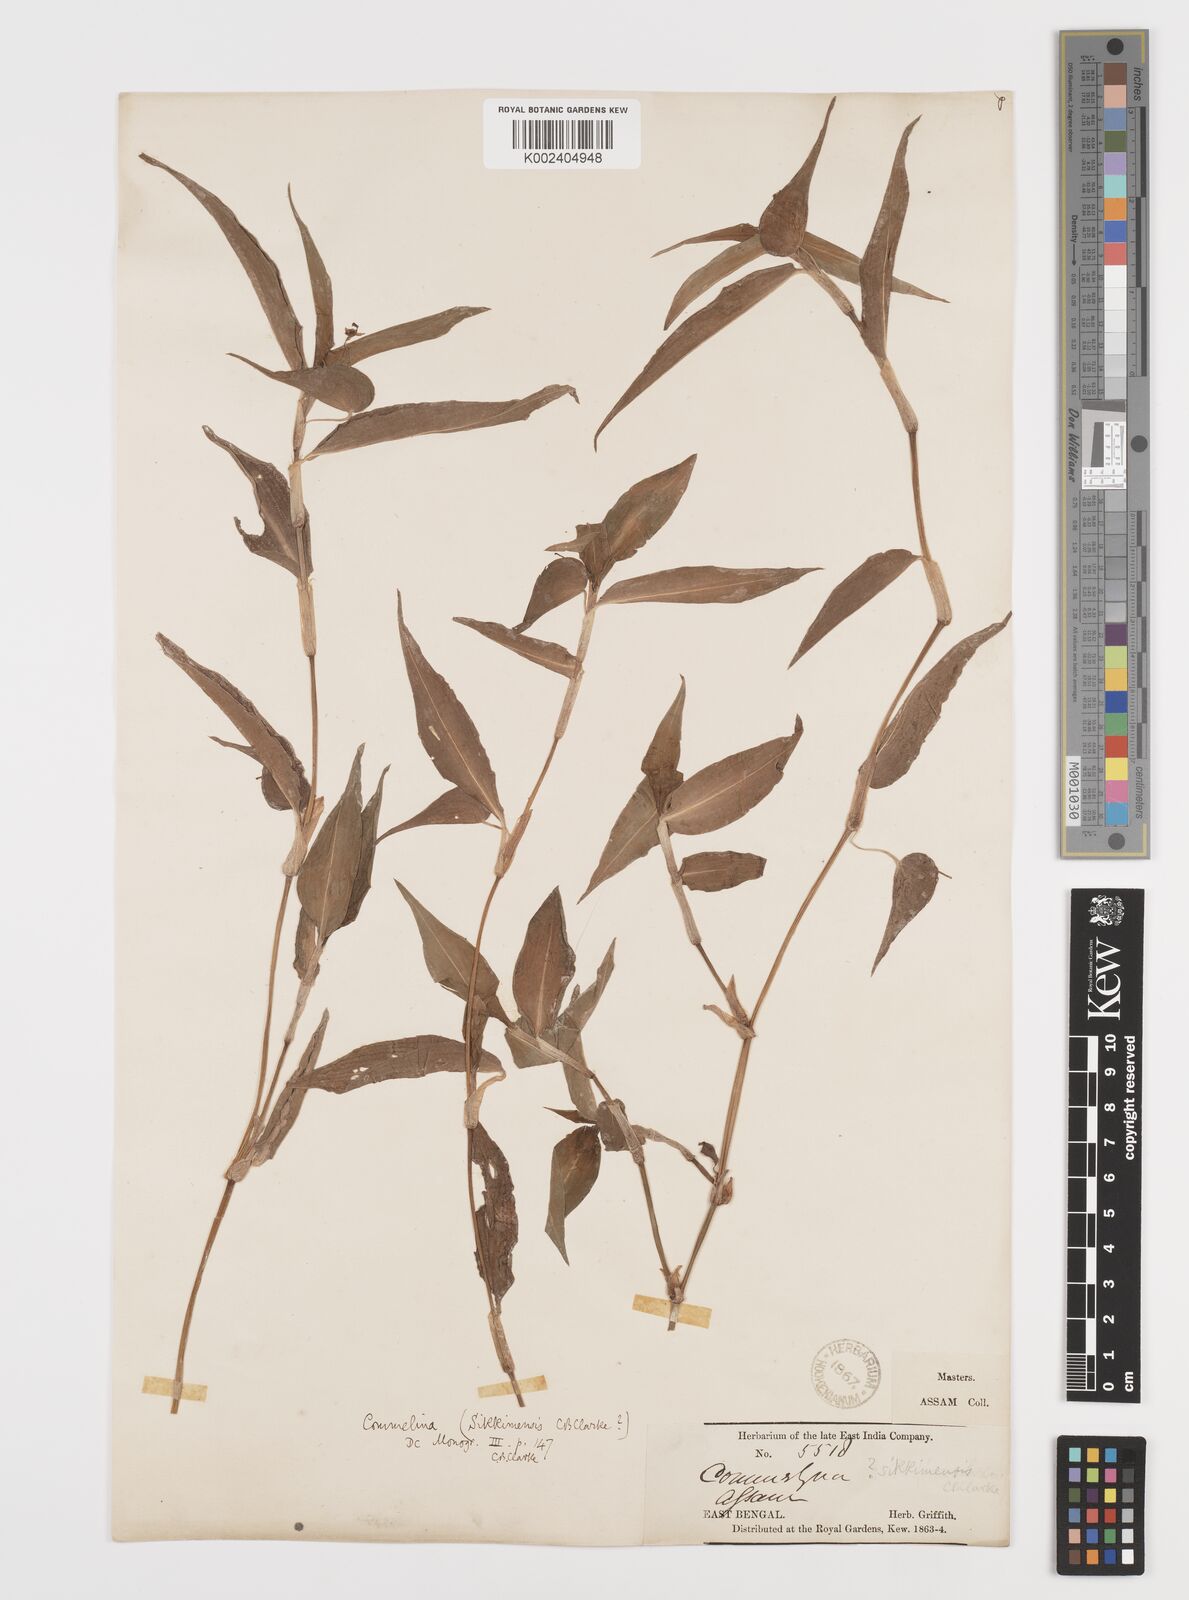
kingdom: Plantae
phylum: Tracheophyta
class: Liliopsida
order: Commelinales
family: Commelinaceae
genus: Commelina
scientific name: Commelina sikkimensis
